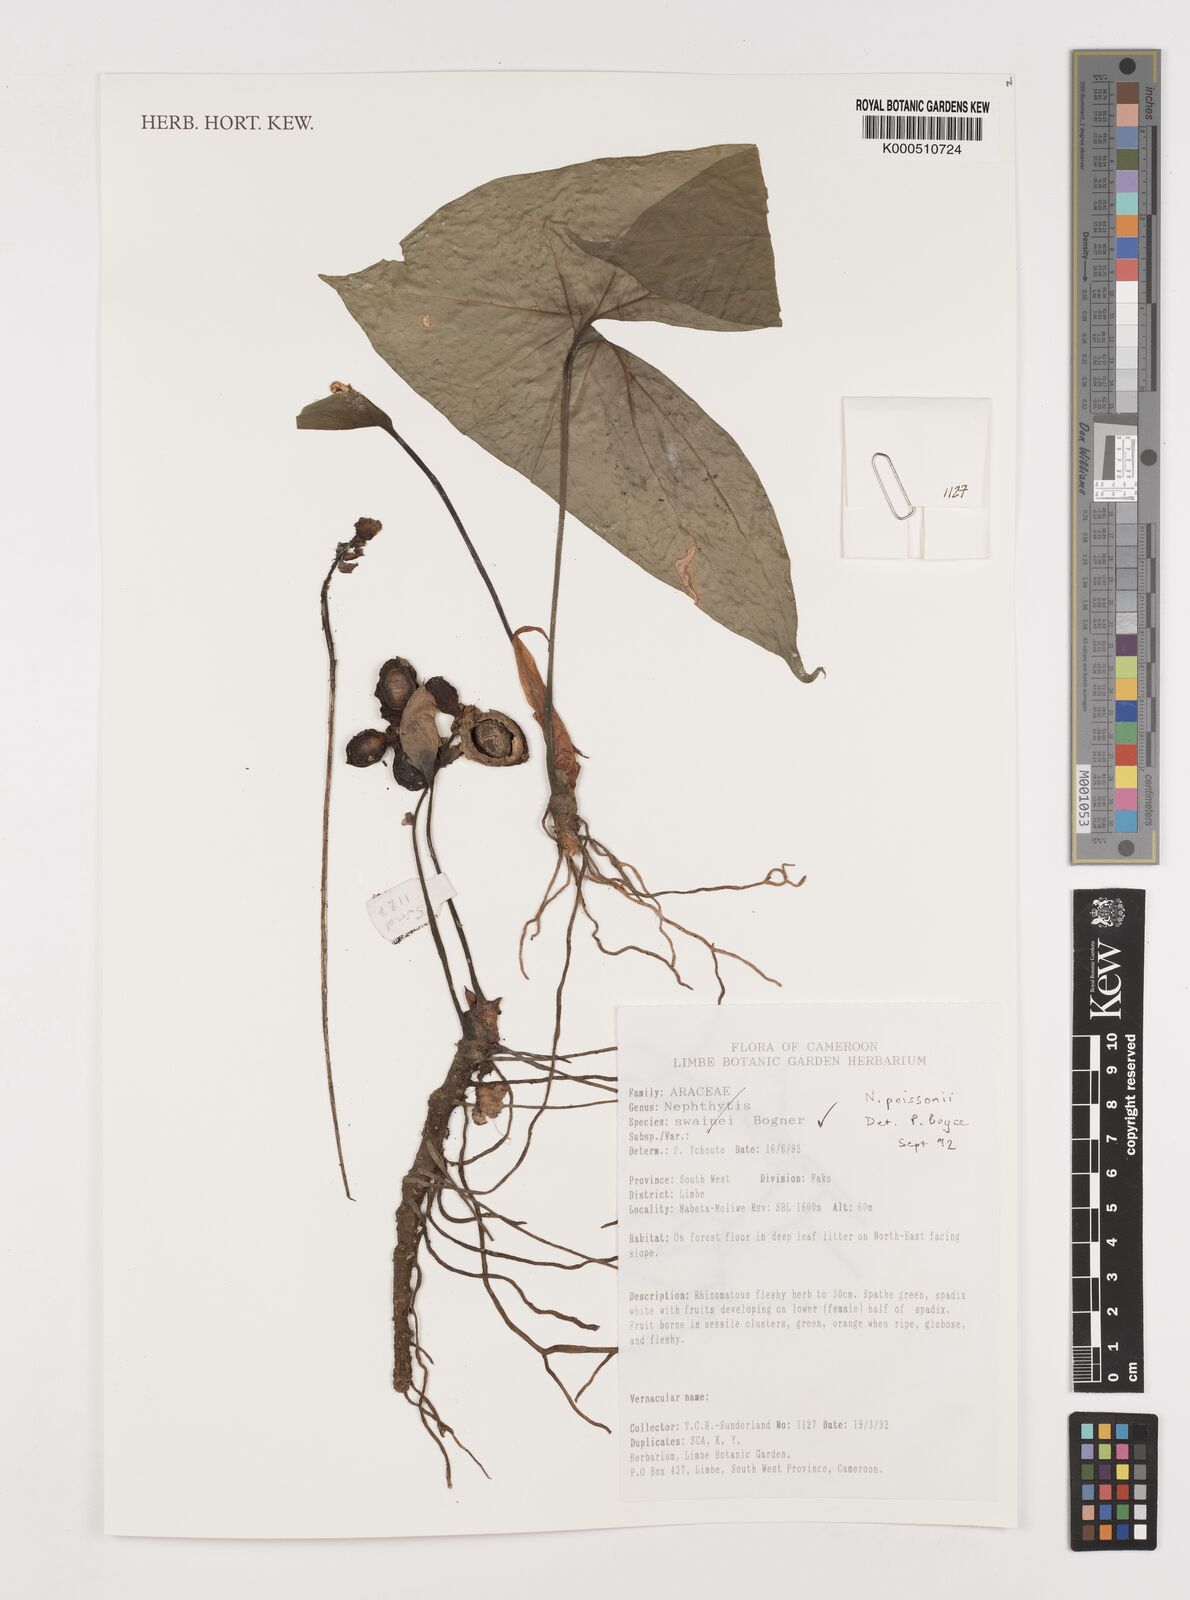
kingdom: Plantae
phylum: Tracheophyta
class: Liliopsida
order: Alismatales
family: Araceae
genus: Nephthytis
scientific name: Nephthytis poissonii
